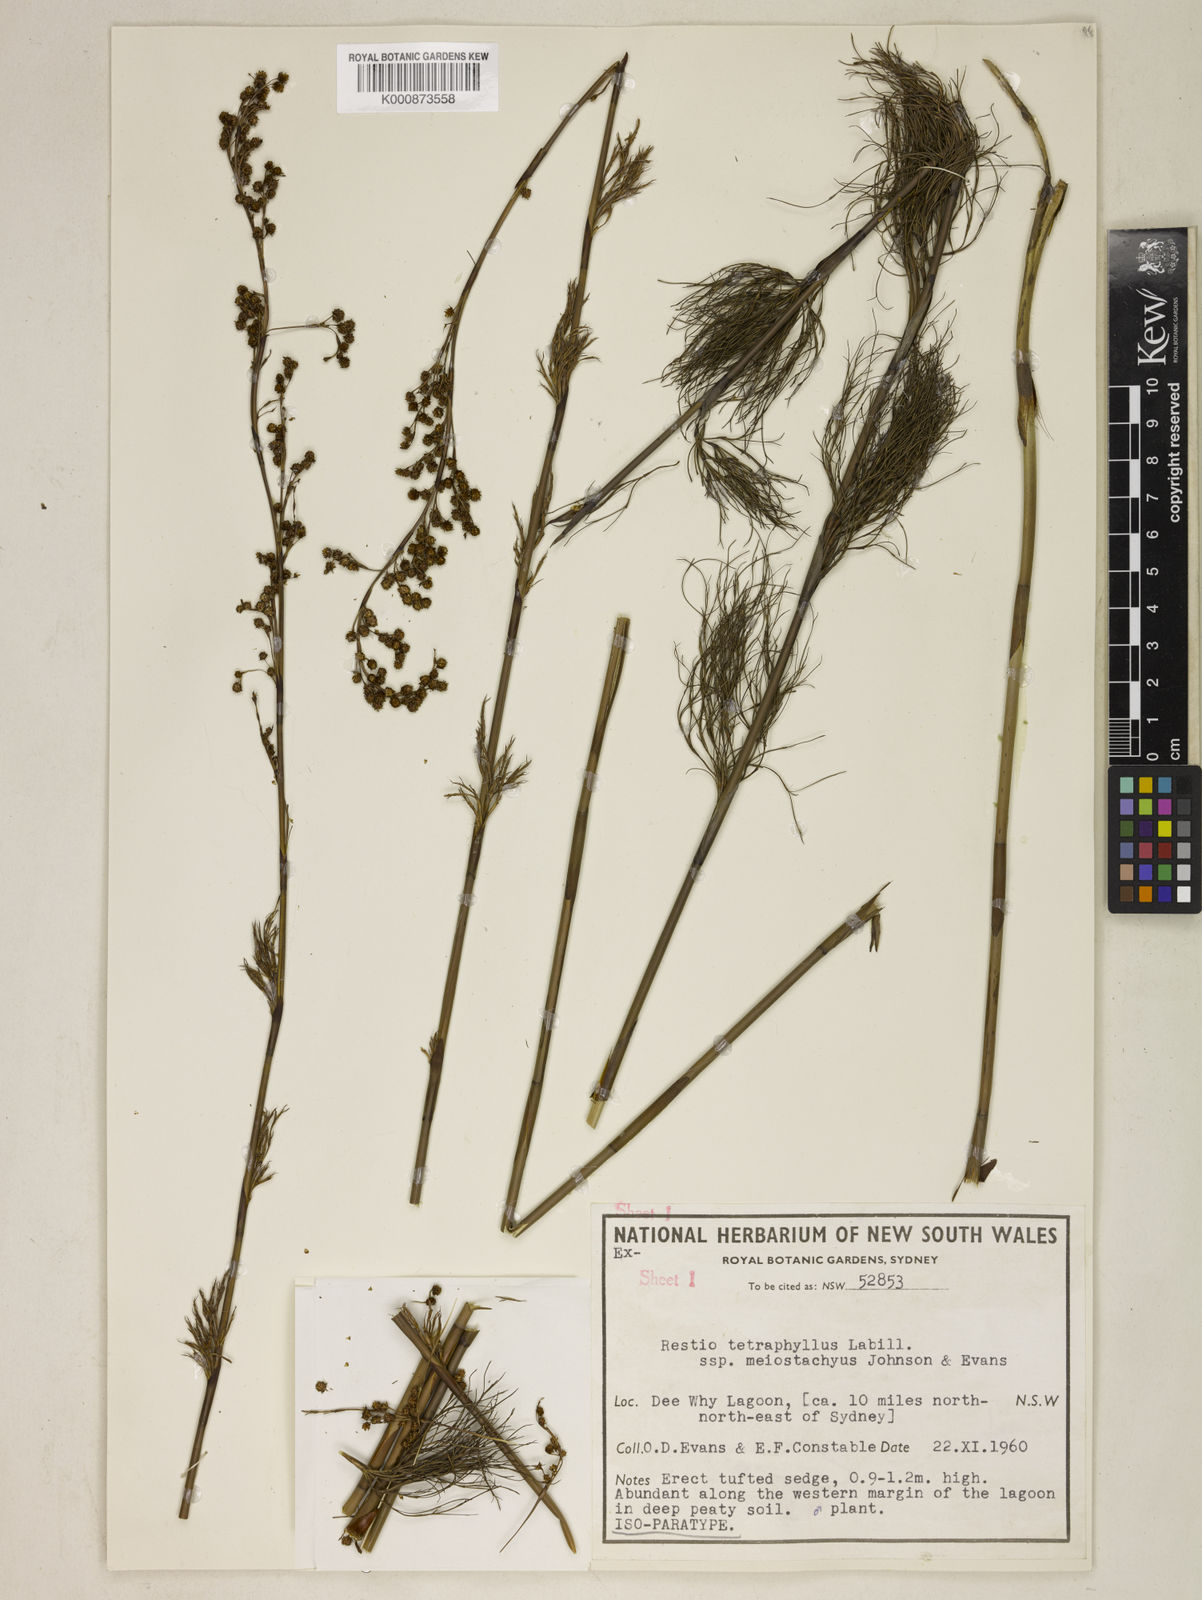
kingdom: Plantae
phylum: Tracheophyta
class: Liliopsida
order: Poales
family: Restionaceae
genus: Baloskion
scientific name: Baloskion tetraphyllum
